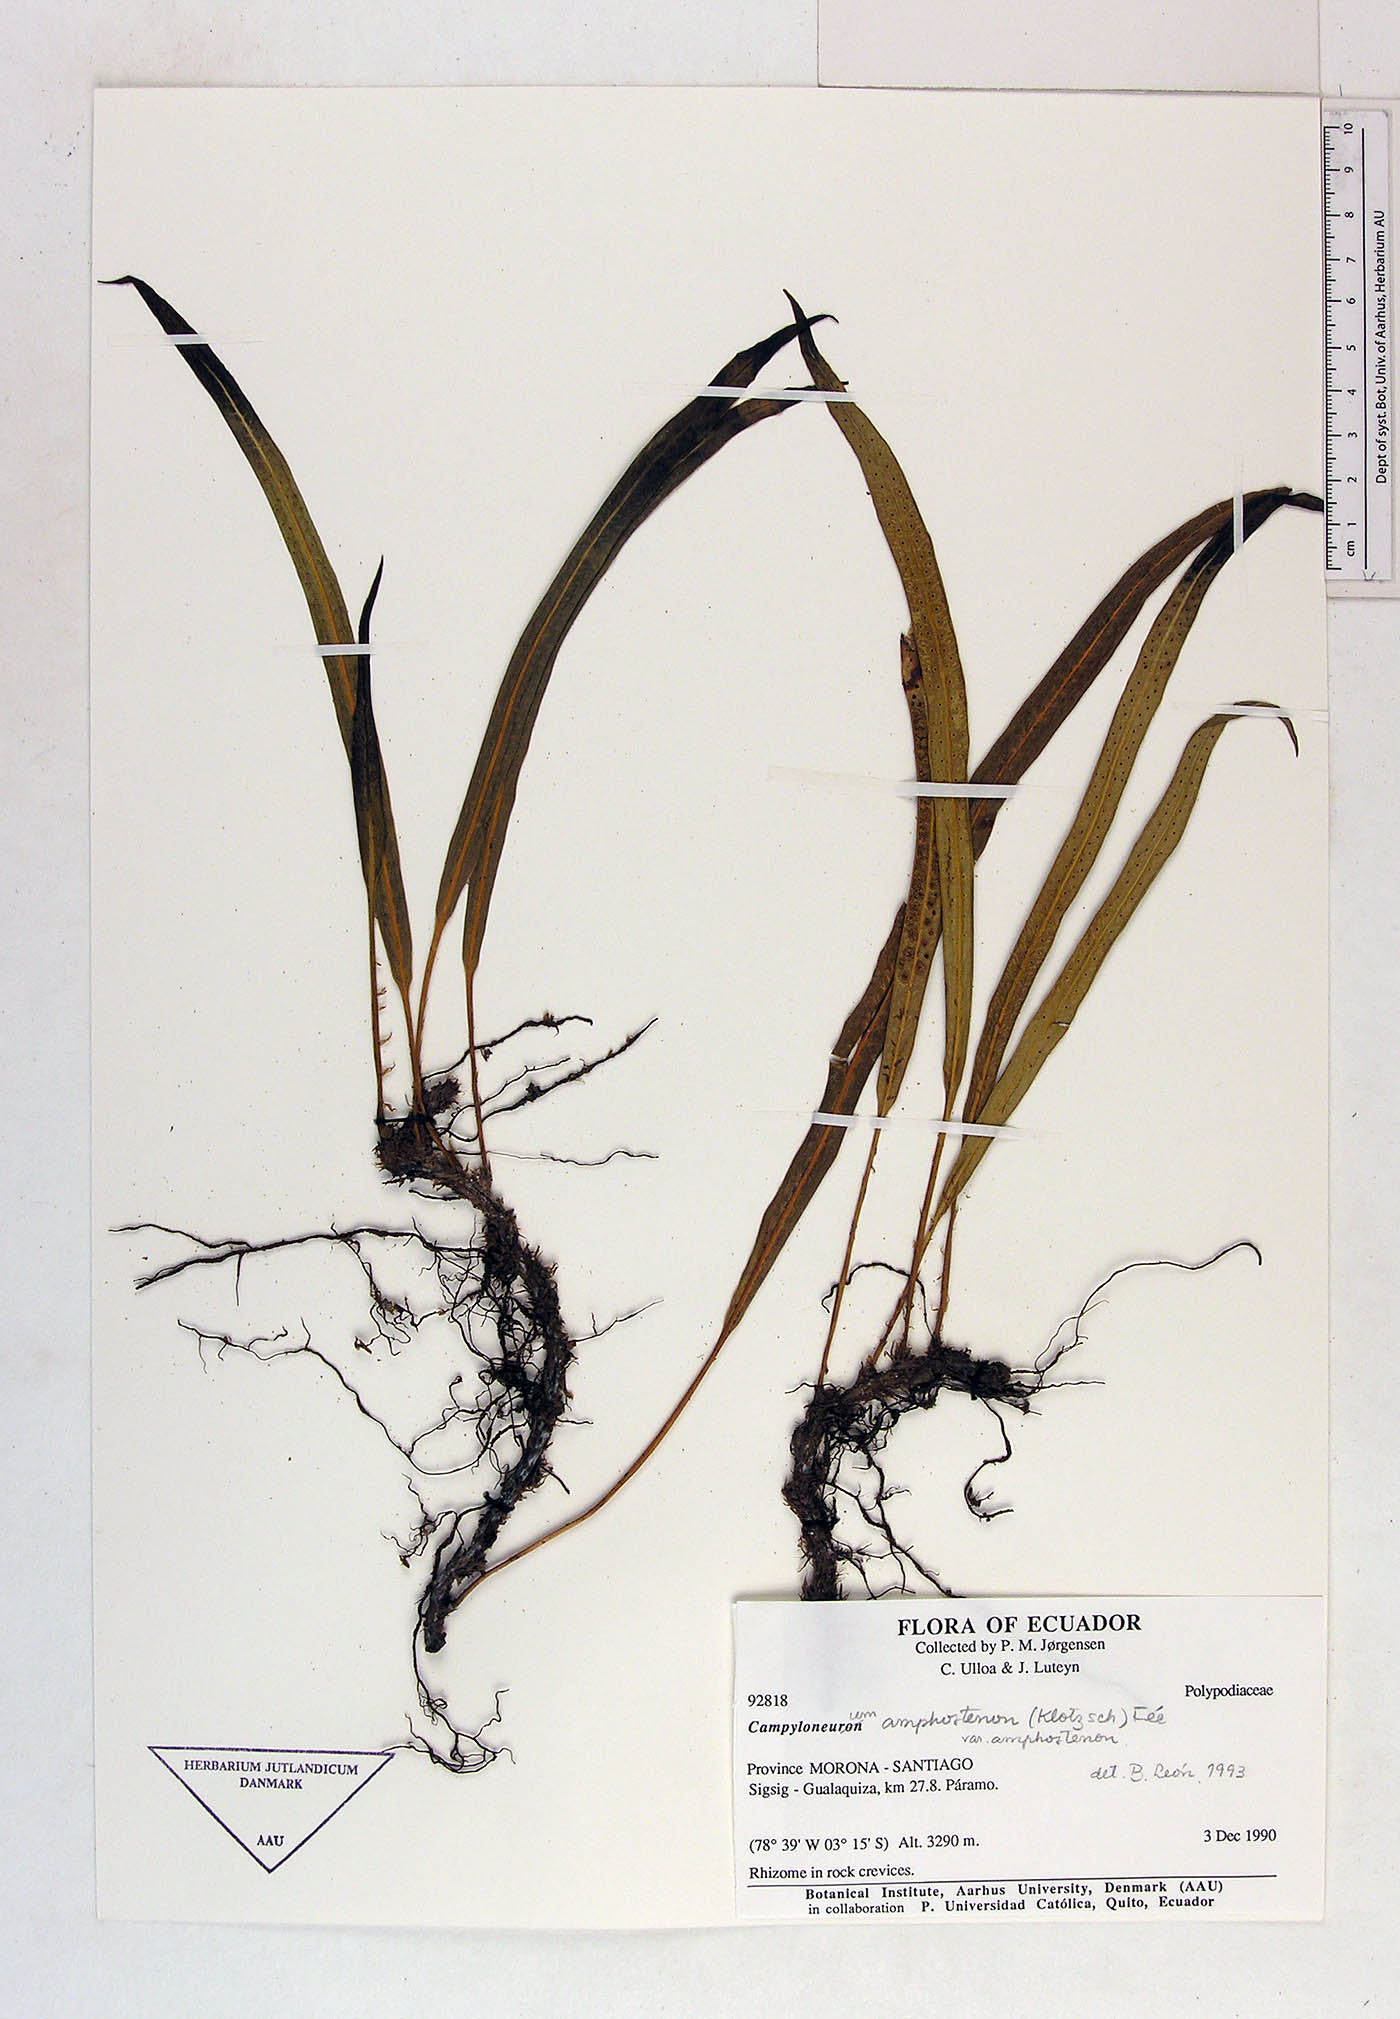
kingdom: Plantae
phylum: Tracheophyta
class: Polypodiopsida
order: Polypodiales
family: Polypodiaceae
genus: Campyloneurum
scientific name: Campyloneurum
